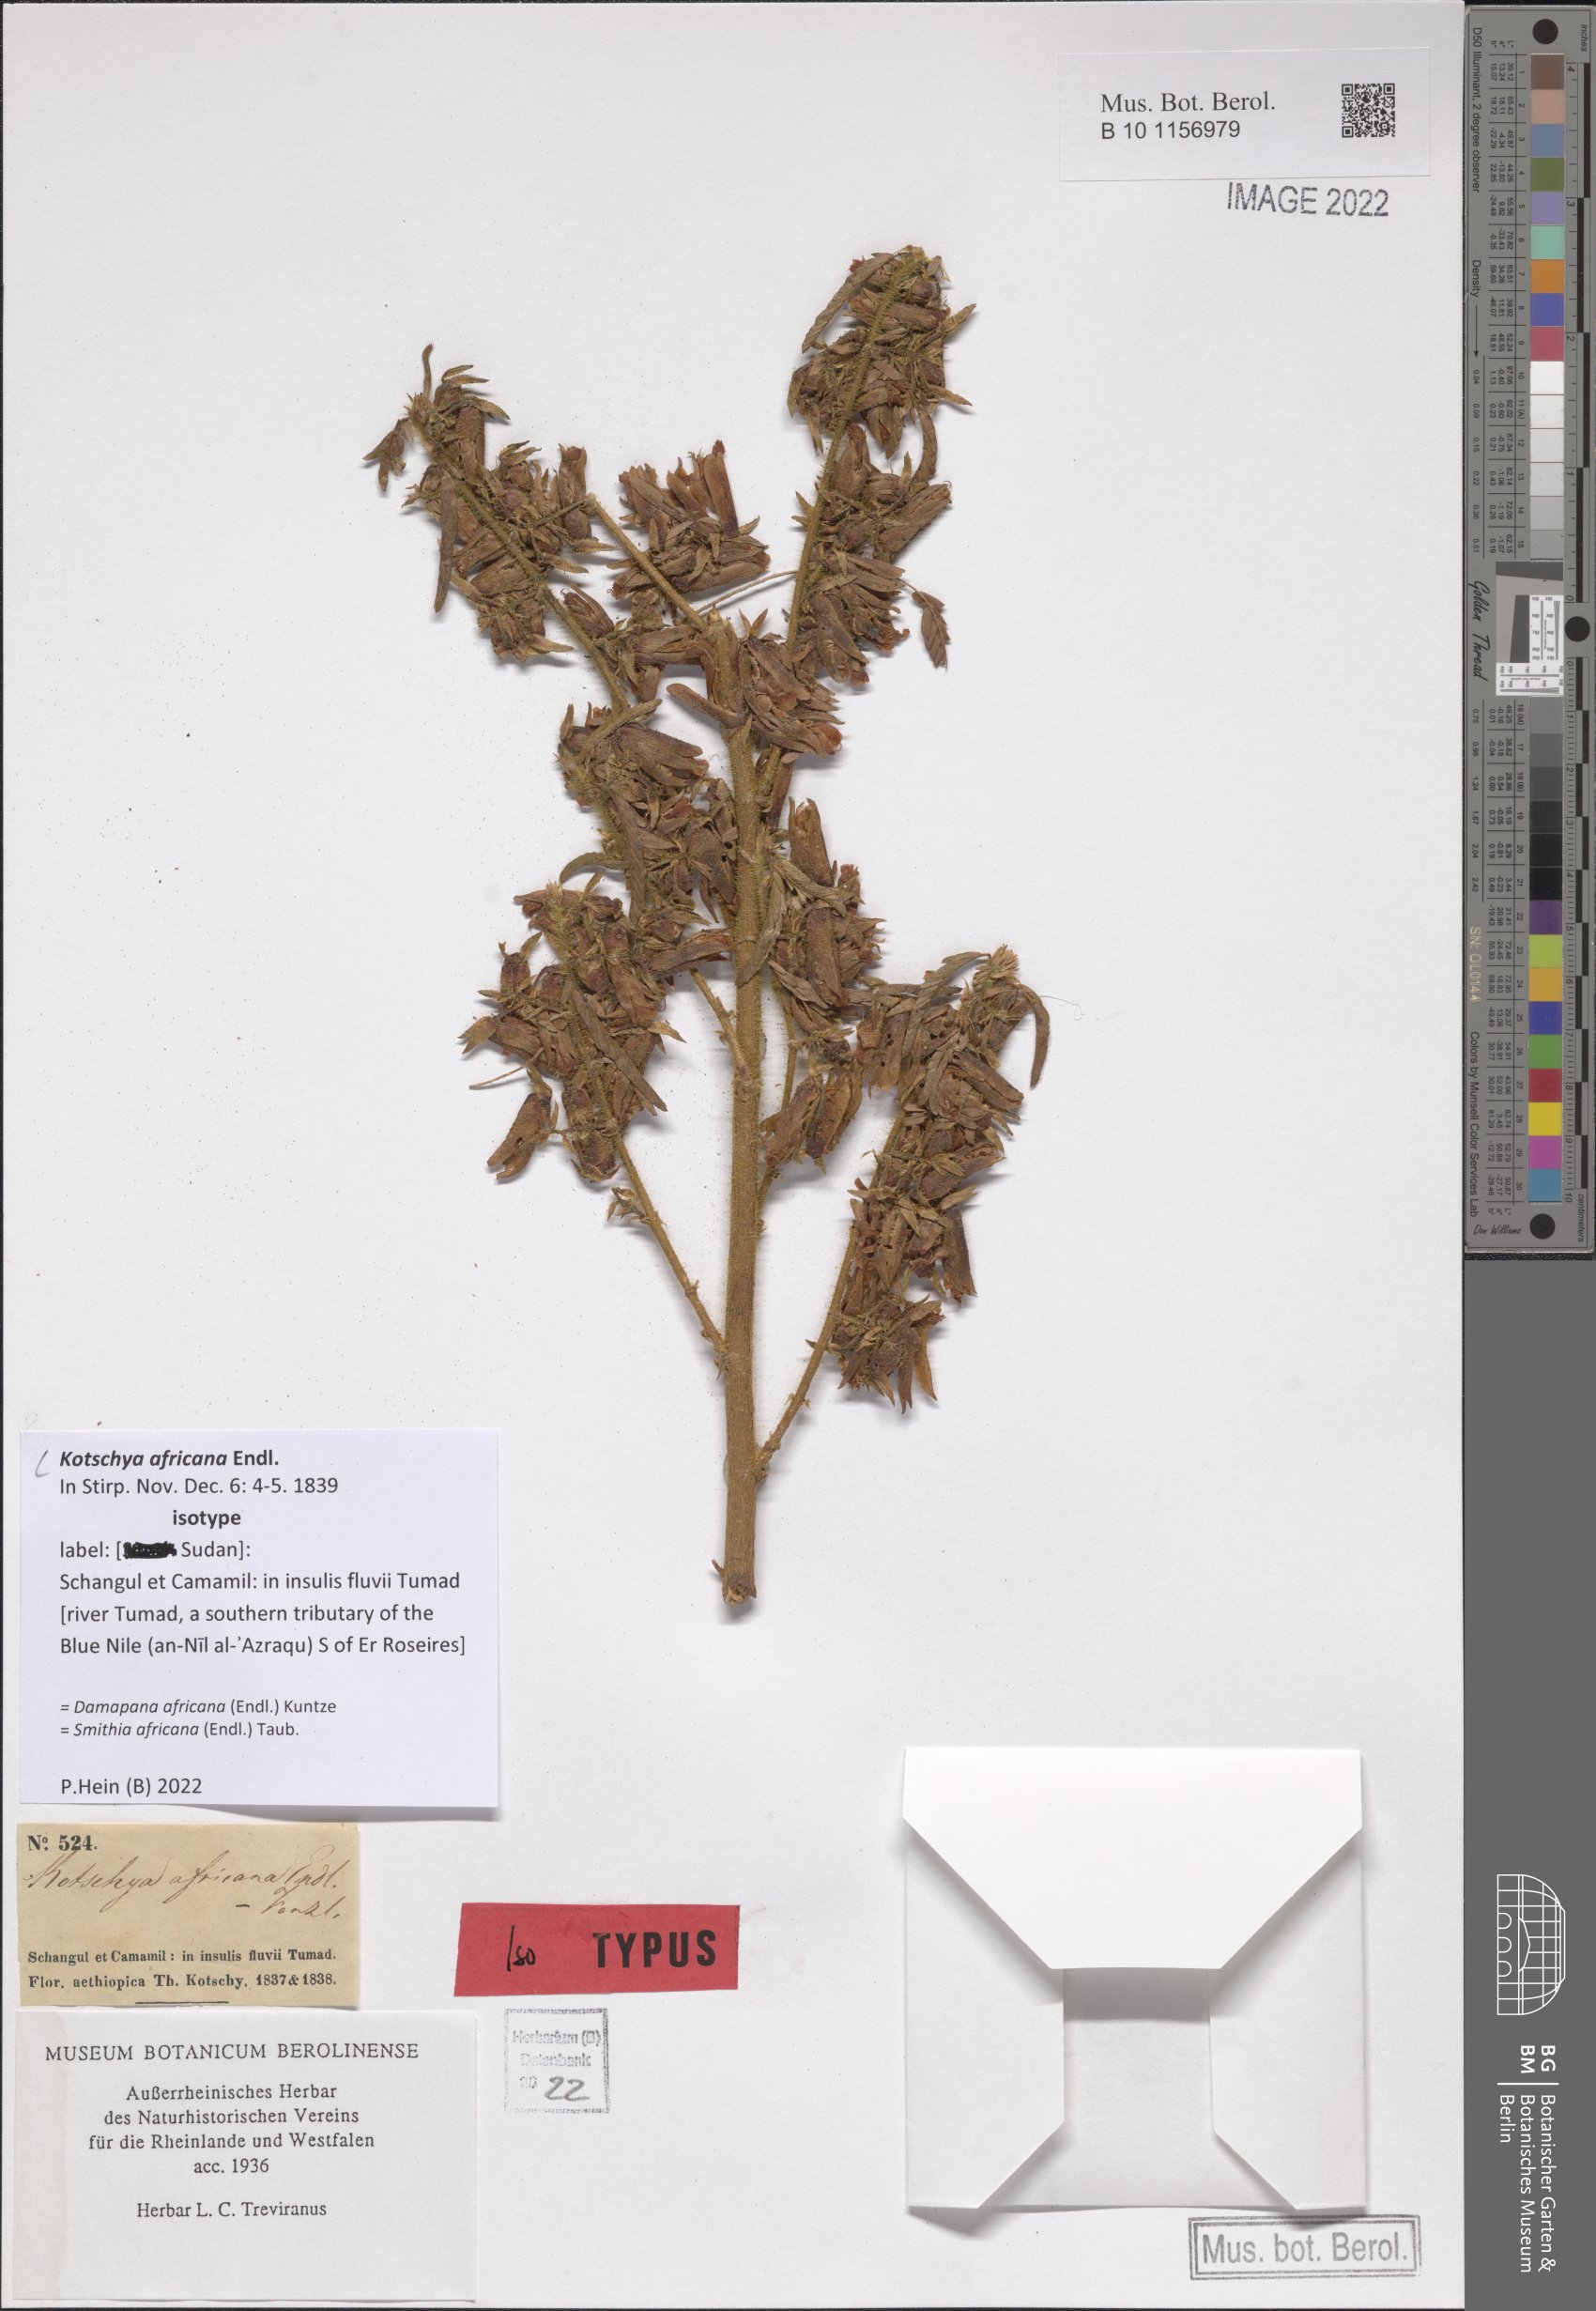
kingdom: Plantae
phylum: Tracheophyta
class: Magnoliopsida
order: Fabales
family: Fabaceae
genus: Kotschya
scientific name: Kotschya africana
